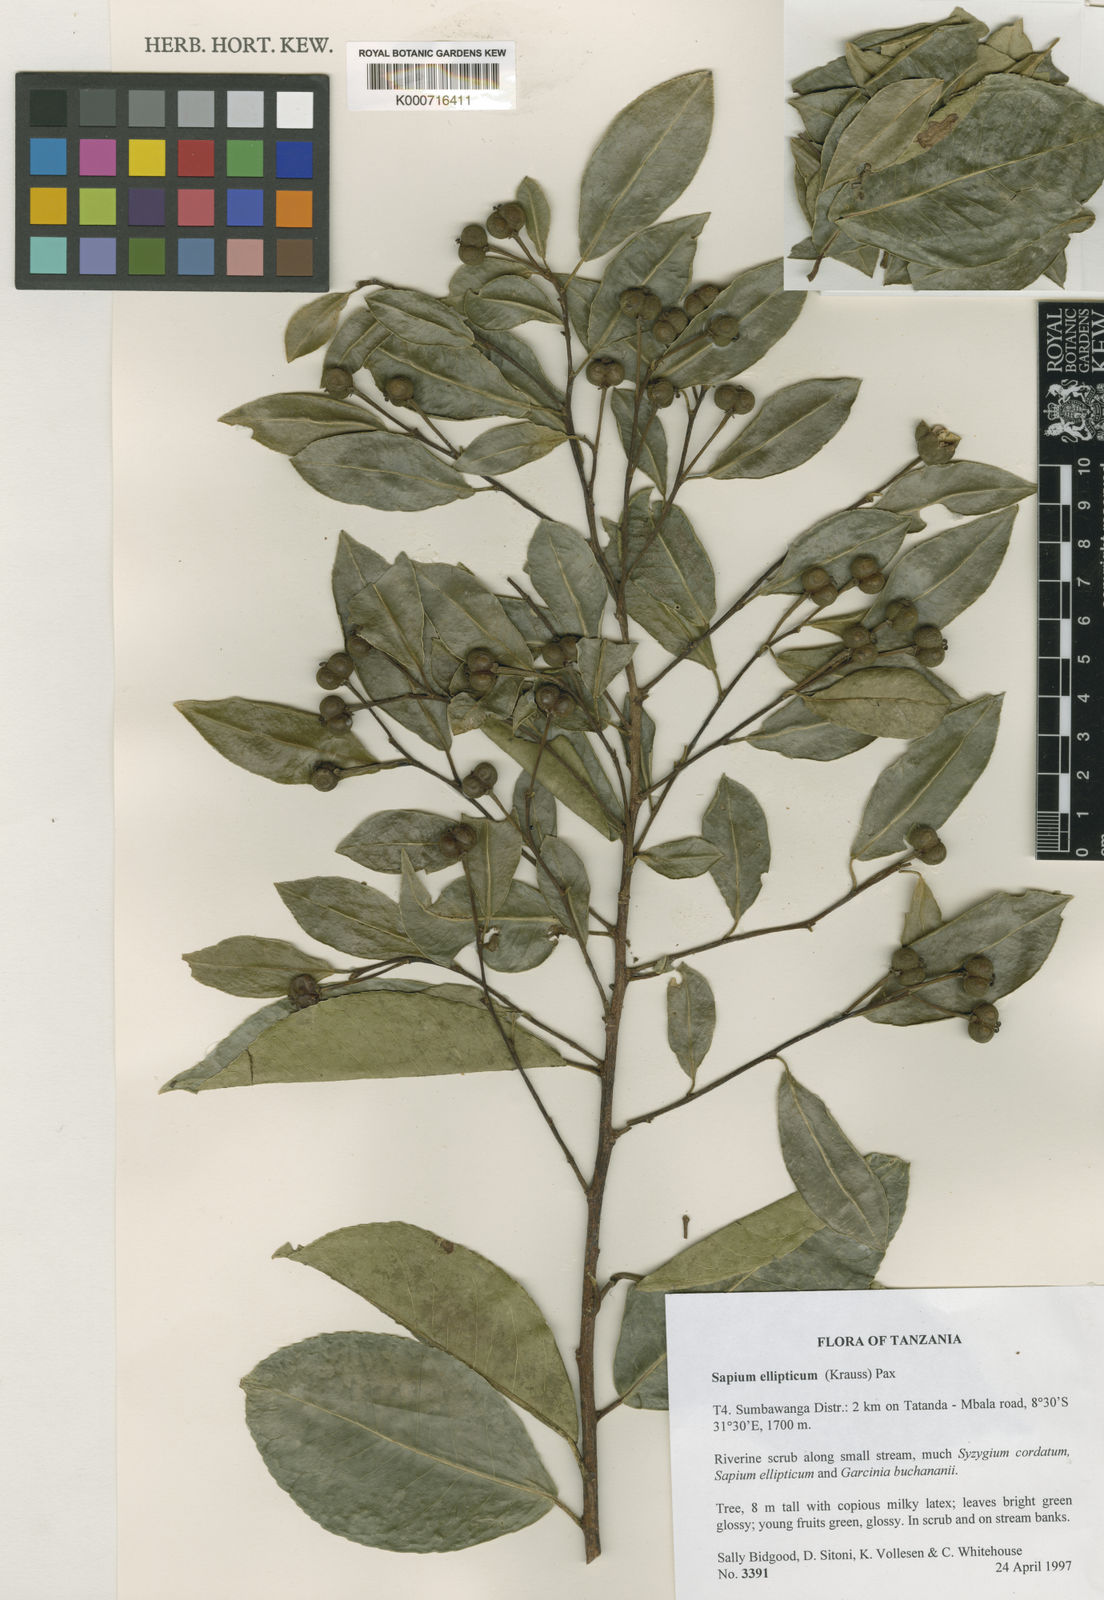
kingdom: Plantae
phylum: Tracheophyta
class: Magnoliopsida
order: Malpighiales
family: Euphorbiaceae
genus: Shirakiopsis
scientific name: Shirakiopsis elliptica
